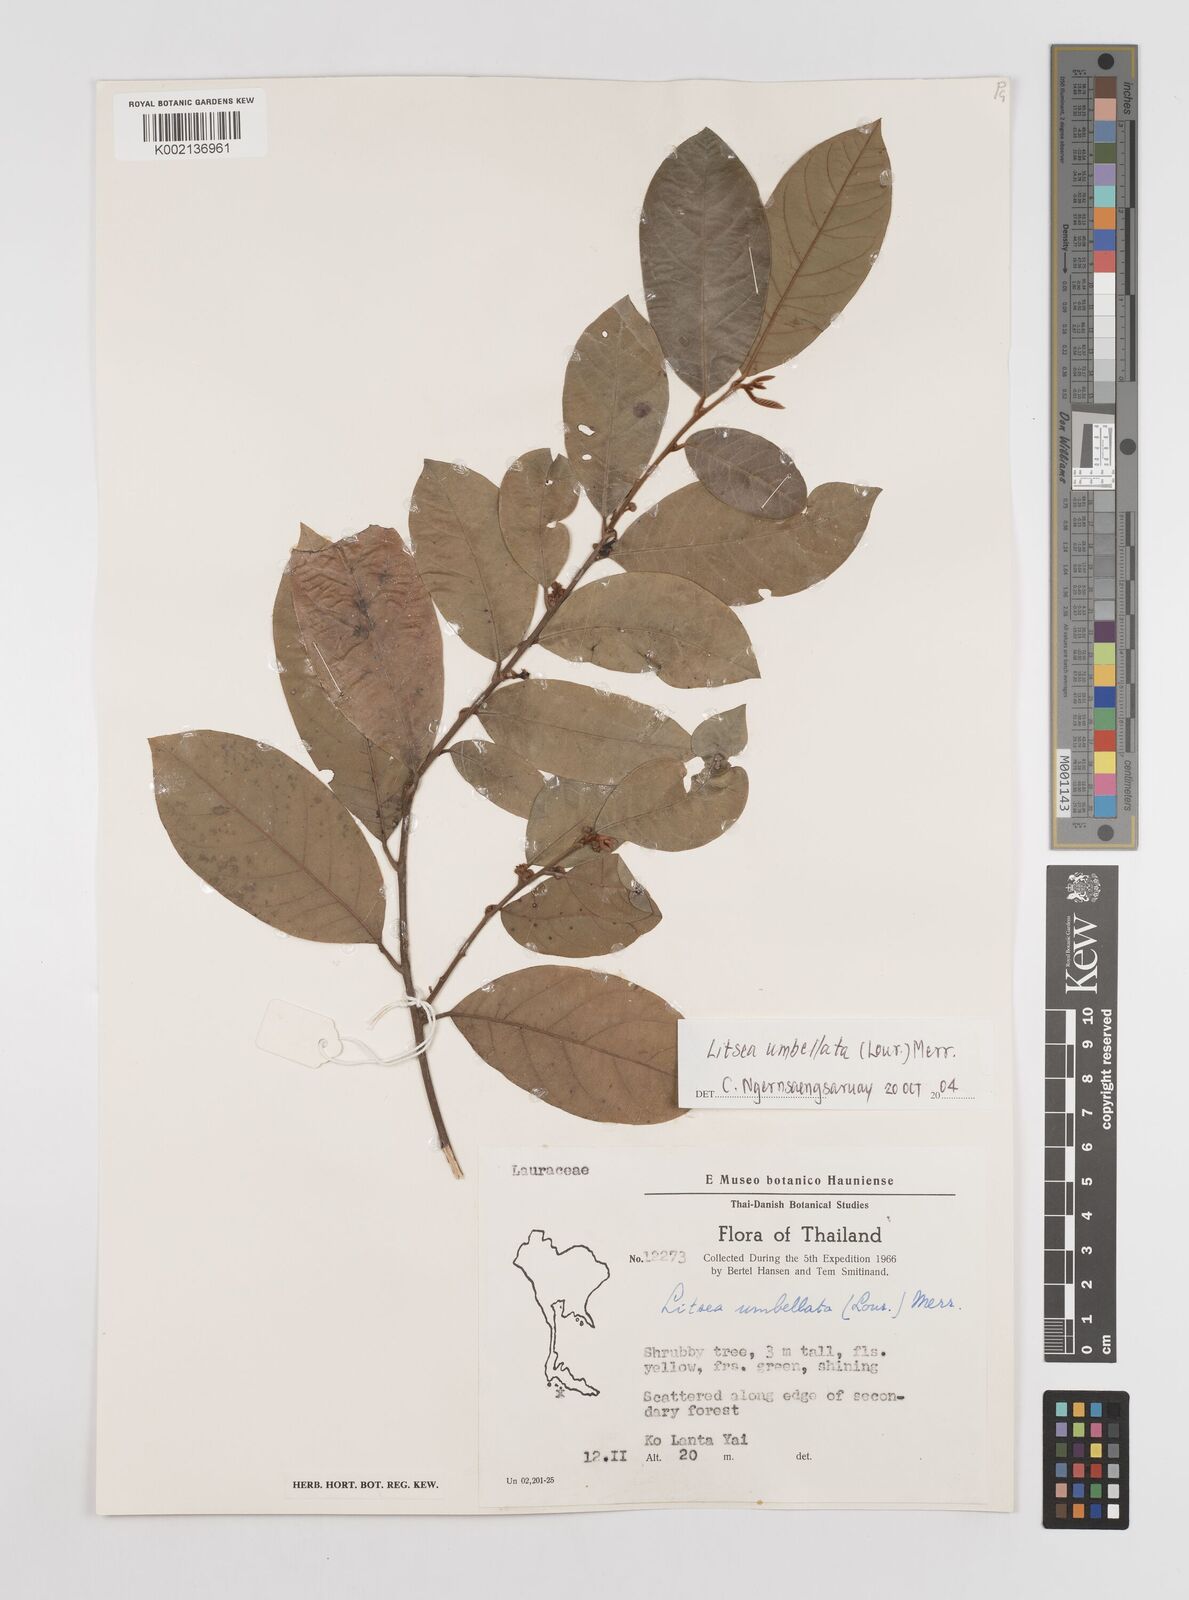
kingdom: Plantae
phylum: Tracheophyta
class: Magnoliopsida
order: Laurales
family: Lauraceae
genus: Litsea
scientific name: Litsea umbellata
